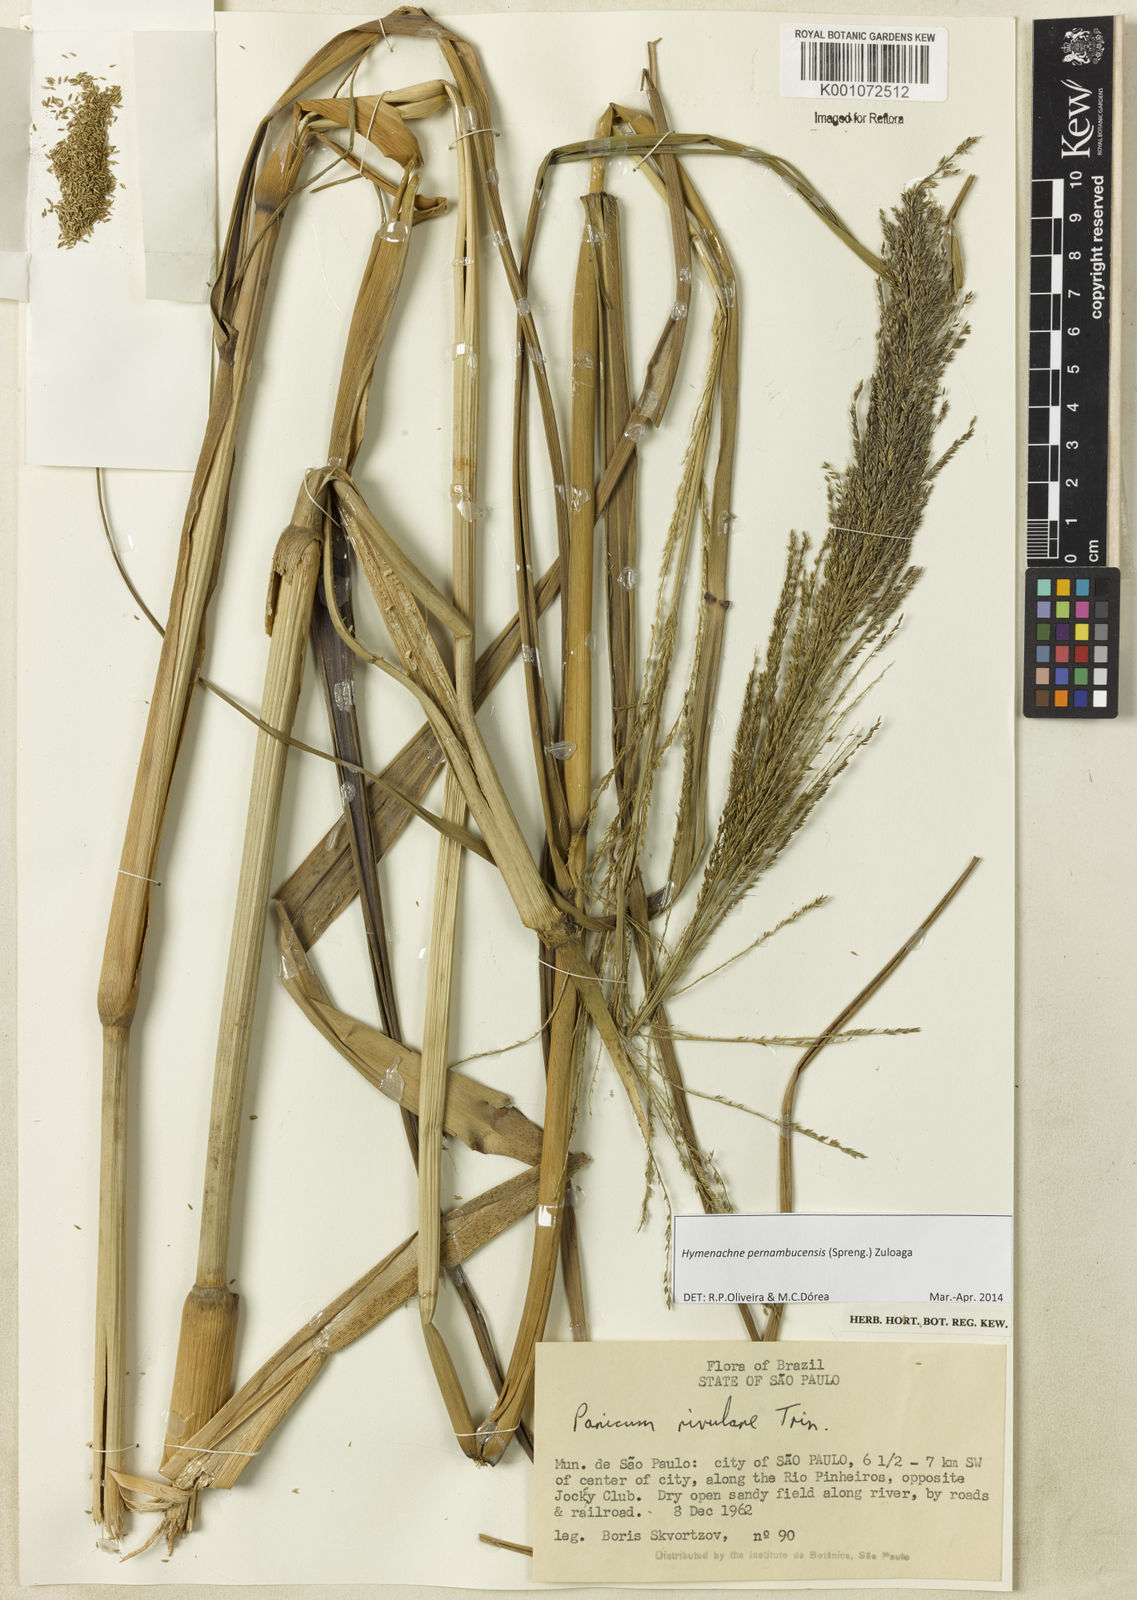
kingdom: Plantae
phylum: Tracheophyta
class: Liliopsida
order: Poales
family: Poaceae
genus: Hymenachne
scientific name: Hymenachne pernambucensis
